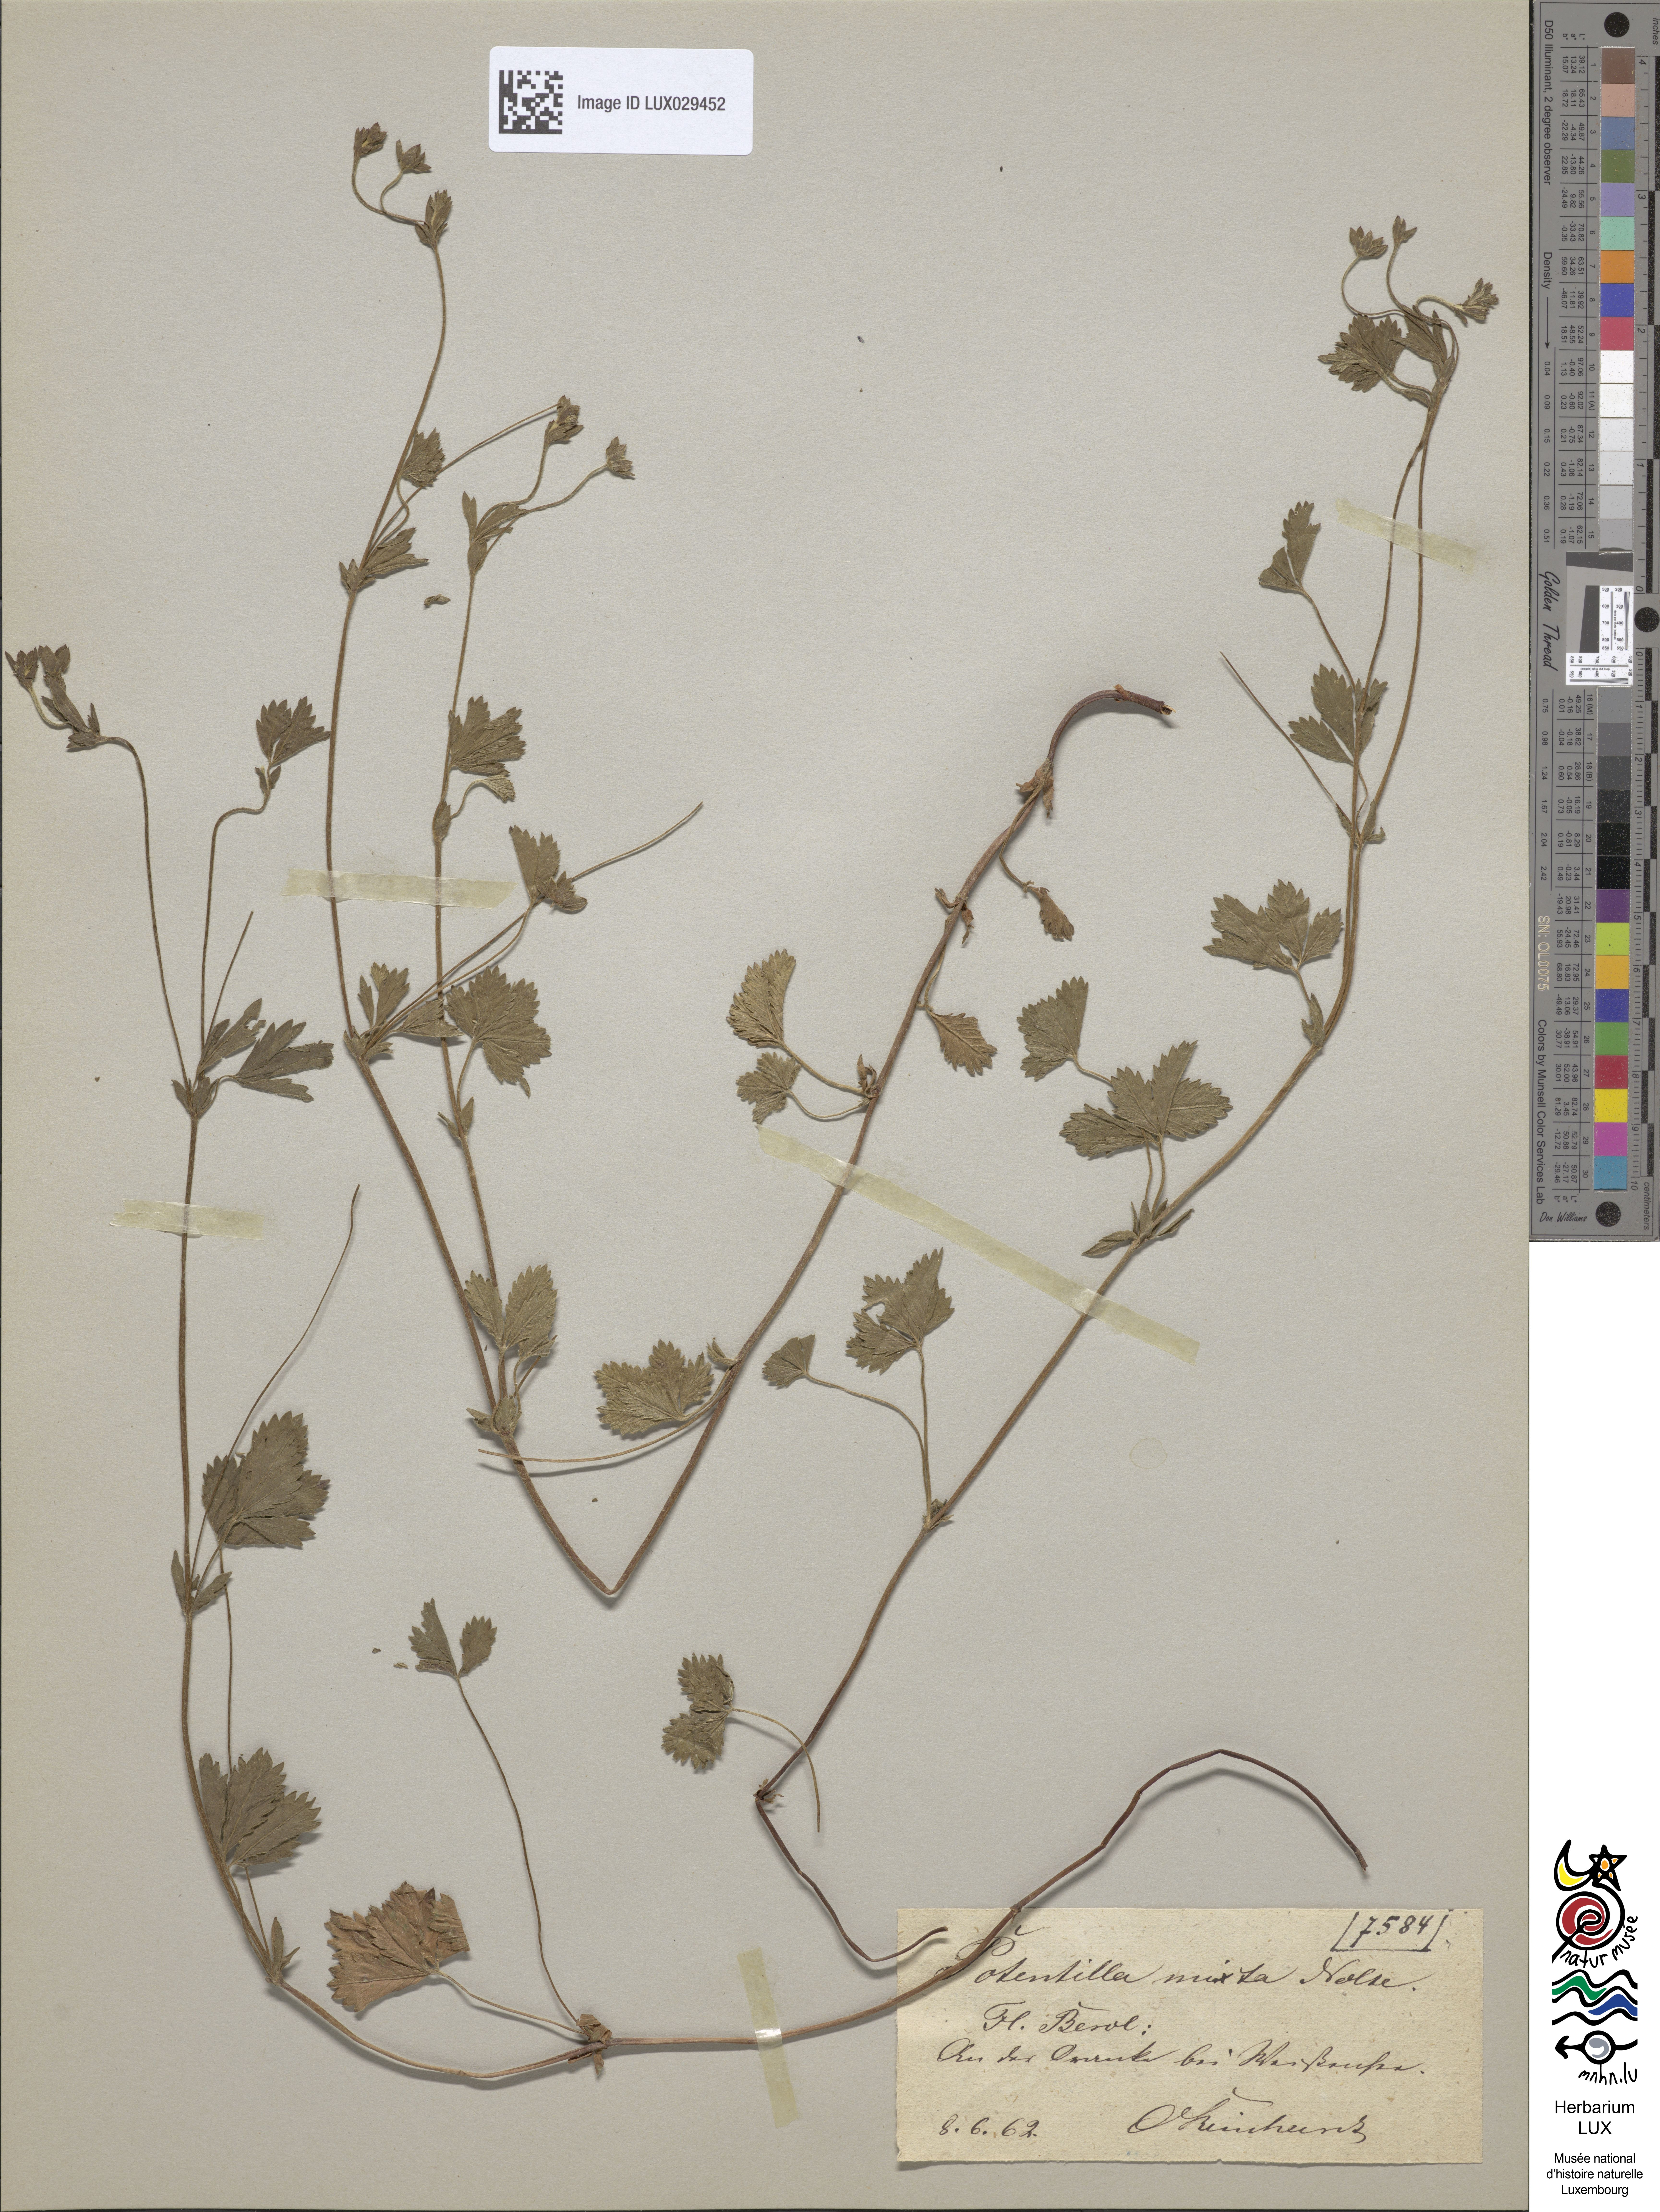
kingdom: Plantae
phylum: Tracheophyta
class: Magnoliopsida
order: Rosales
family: Rosaceae
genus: Potentilla
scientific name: Potentilla mixta
